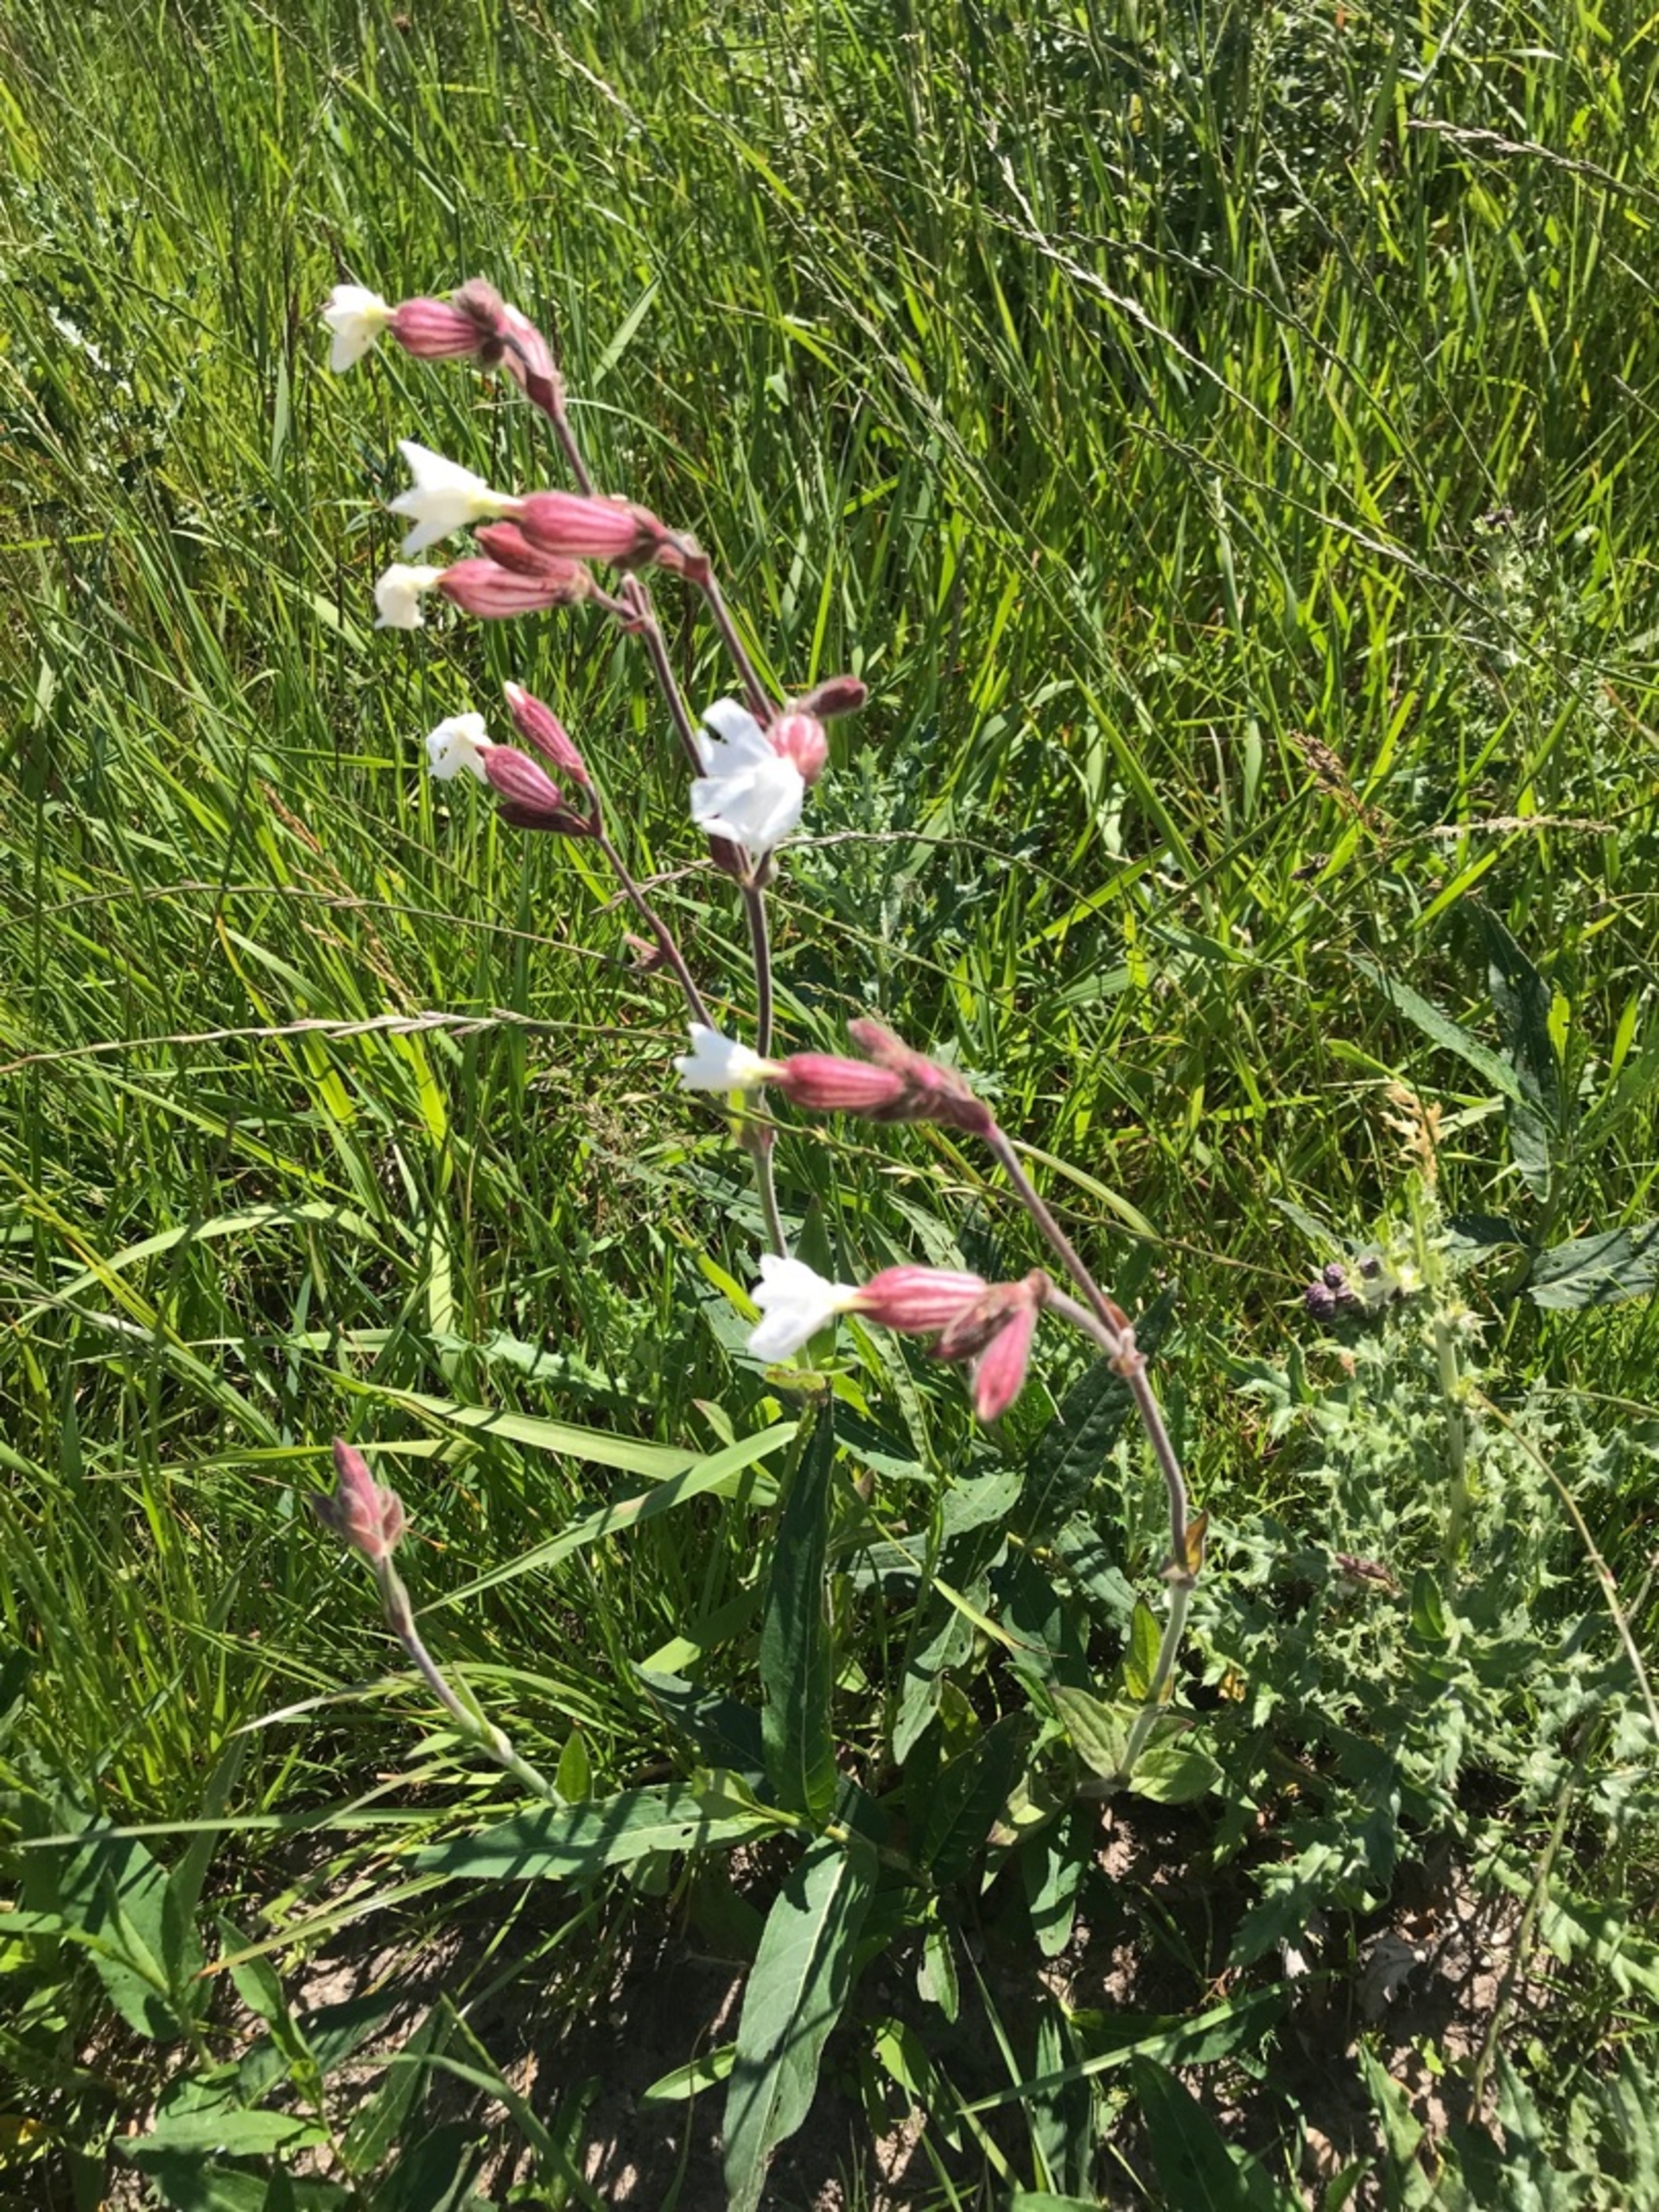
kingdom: Plantae
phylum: Tracheophyta
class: Magnoliopsida
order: Caryophyllales
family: Caryophyllaceae
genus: Silene
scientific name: Silene latifolia
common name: Aftenpragtstjerne
